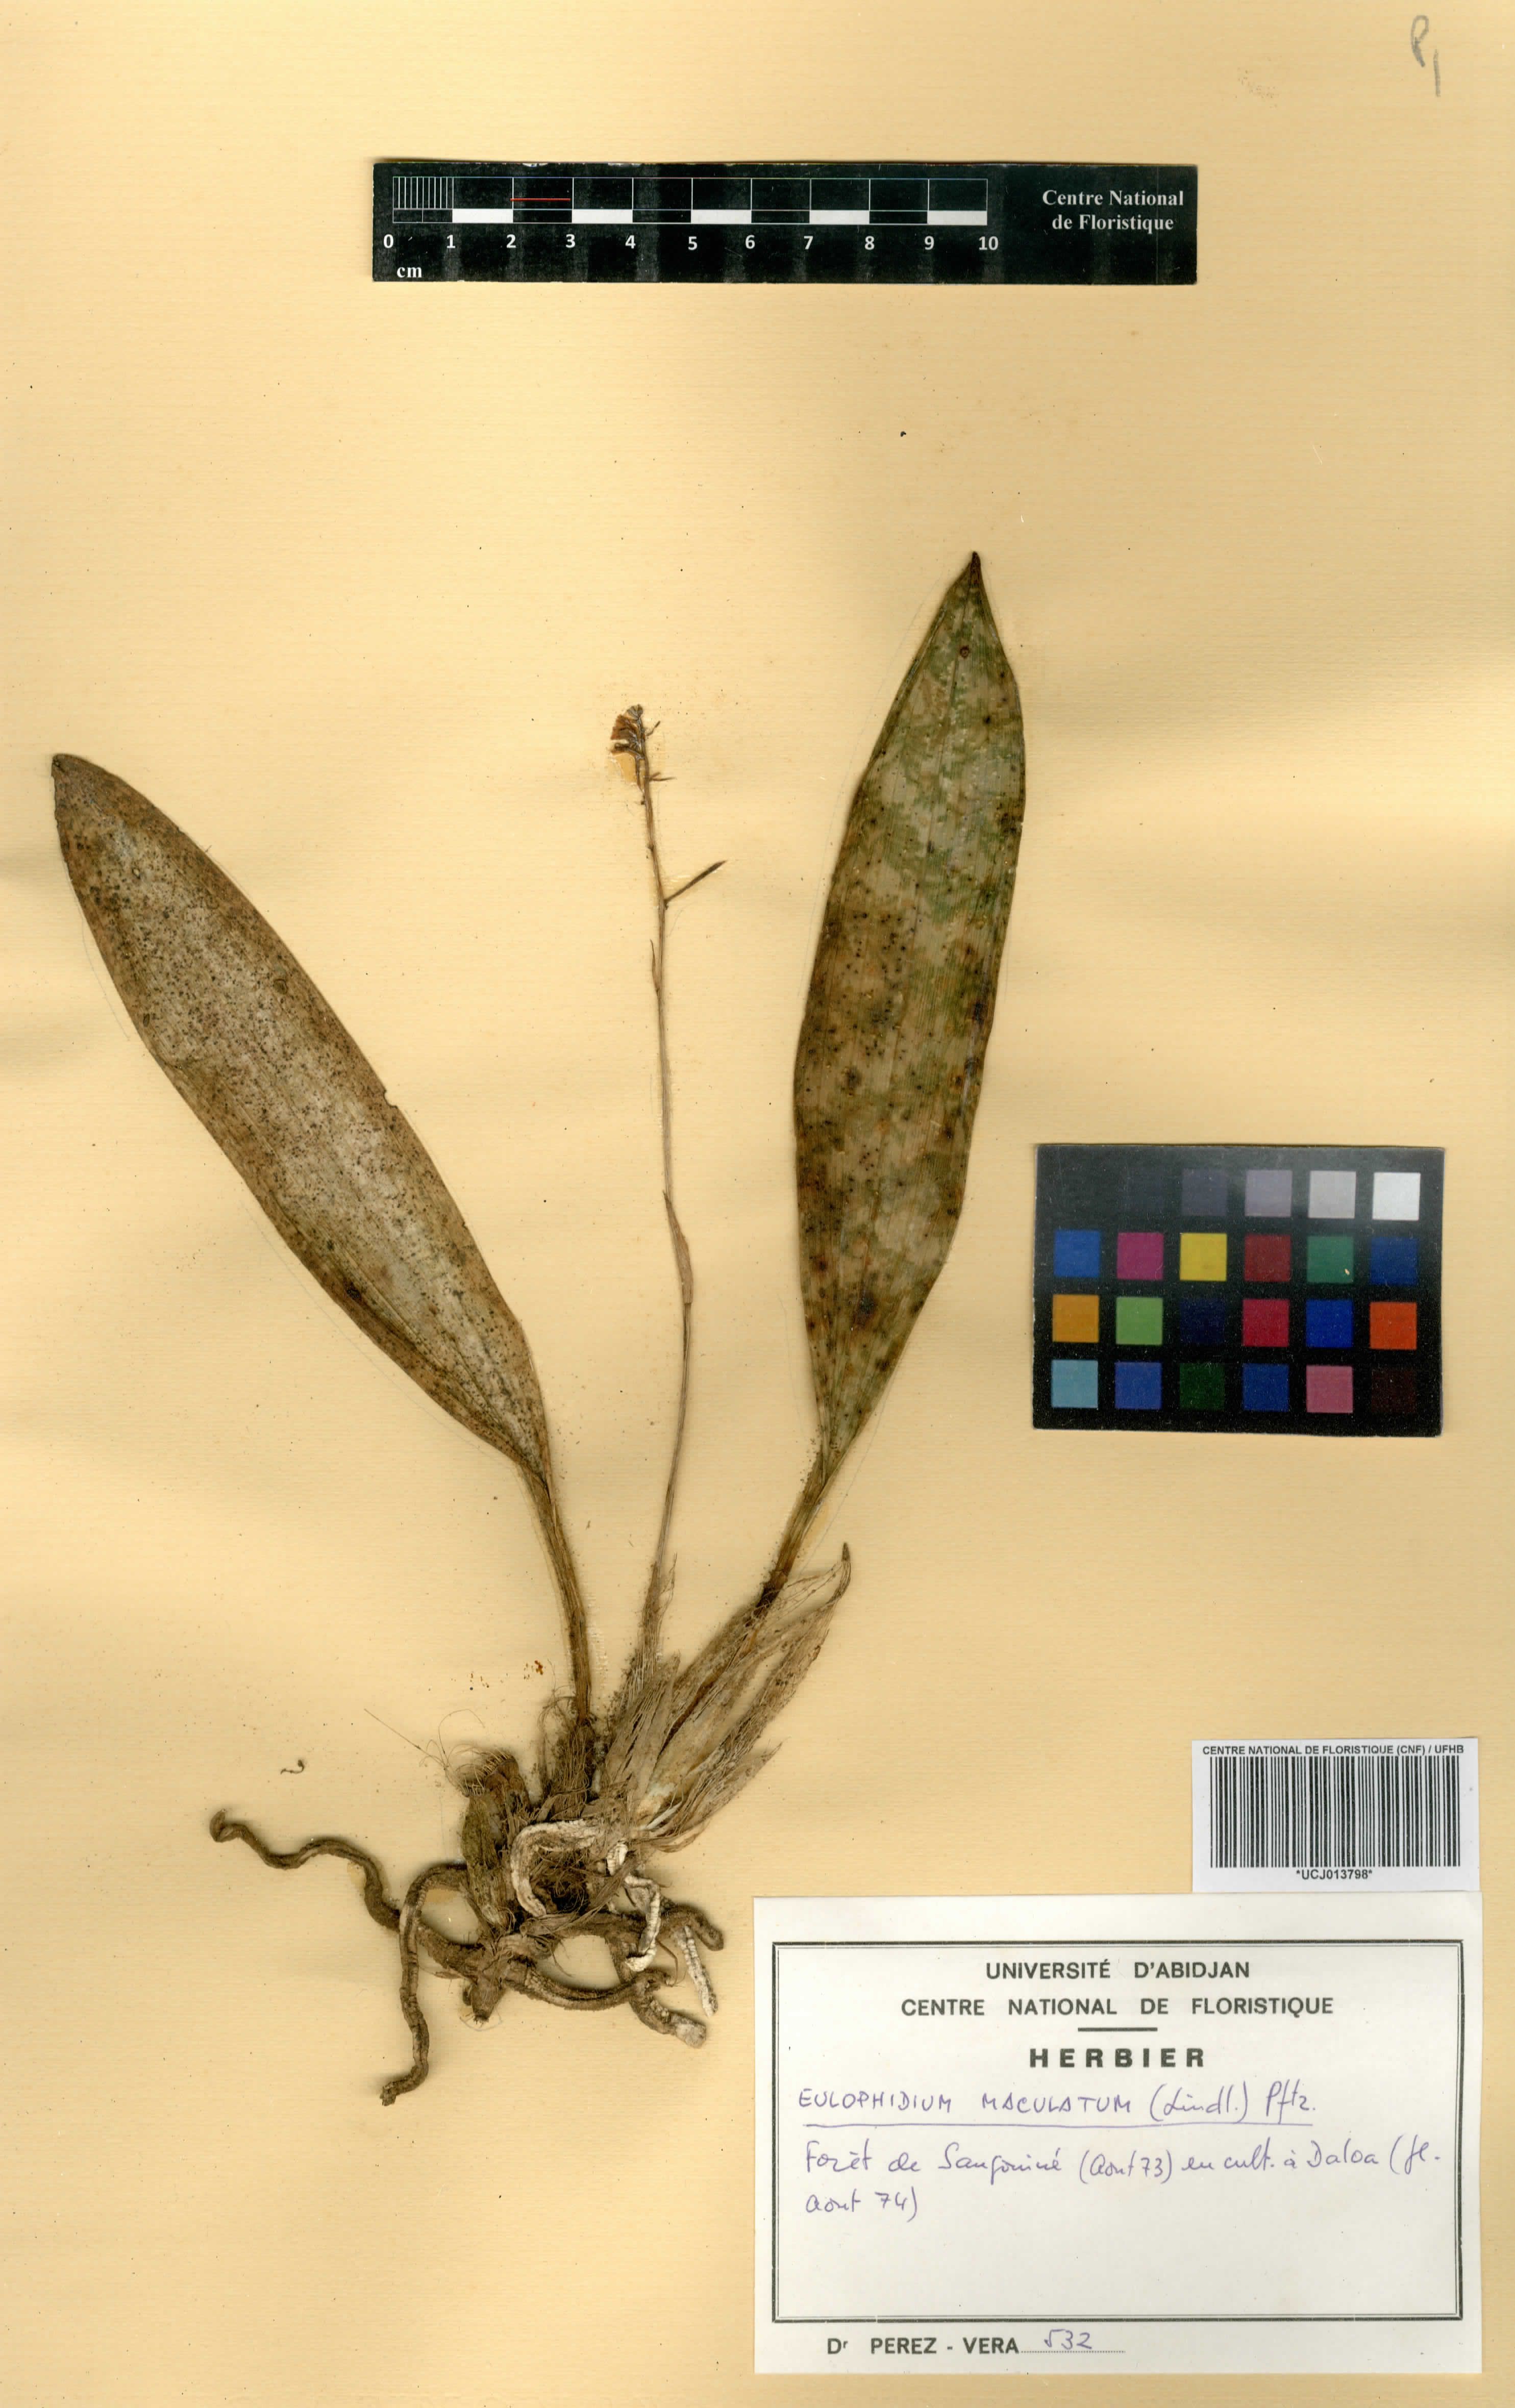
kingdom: Plantae
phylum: Tracheophyta
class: Liliopsida
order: Asparagales
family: Orchidaceae
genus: Eulophia
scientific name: Eulophia maculata
